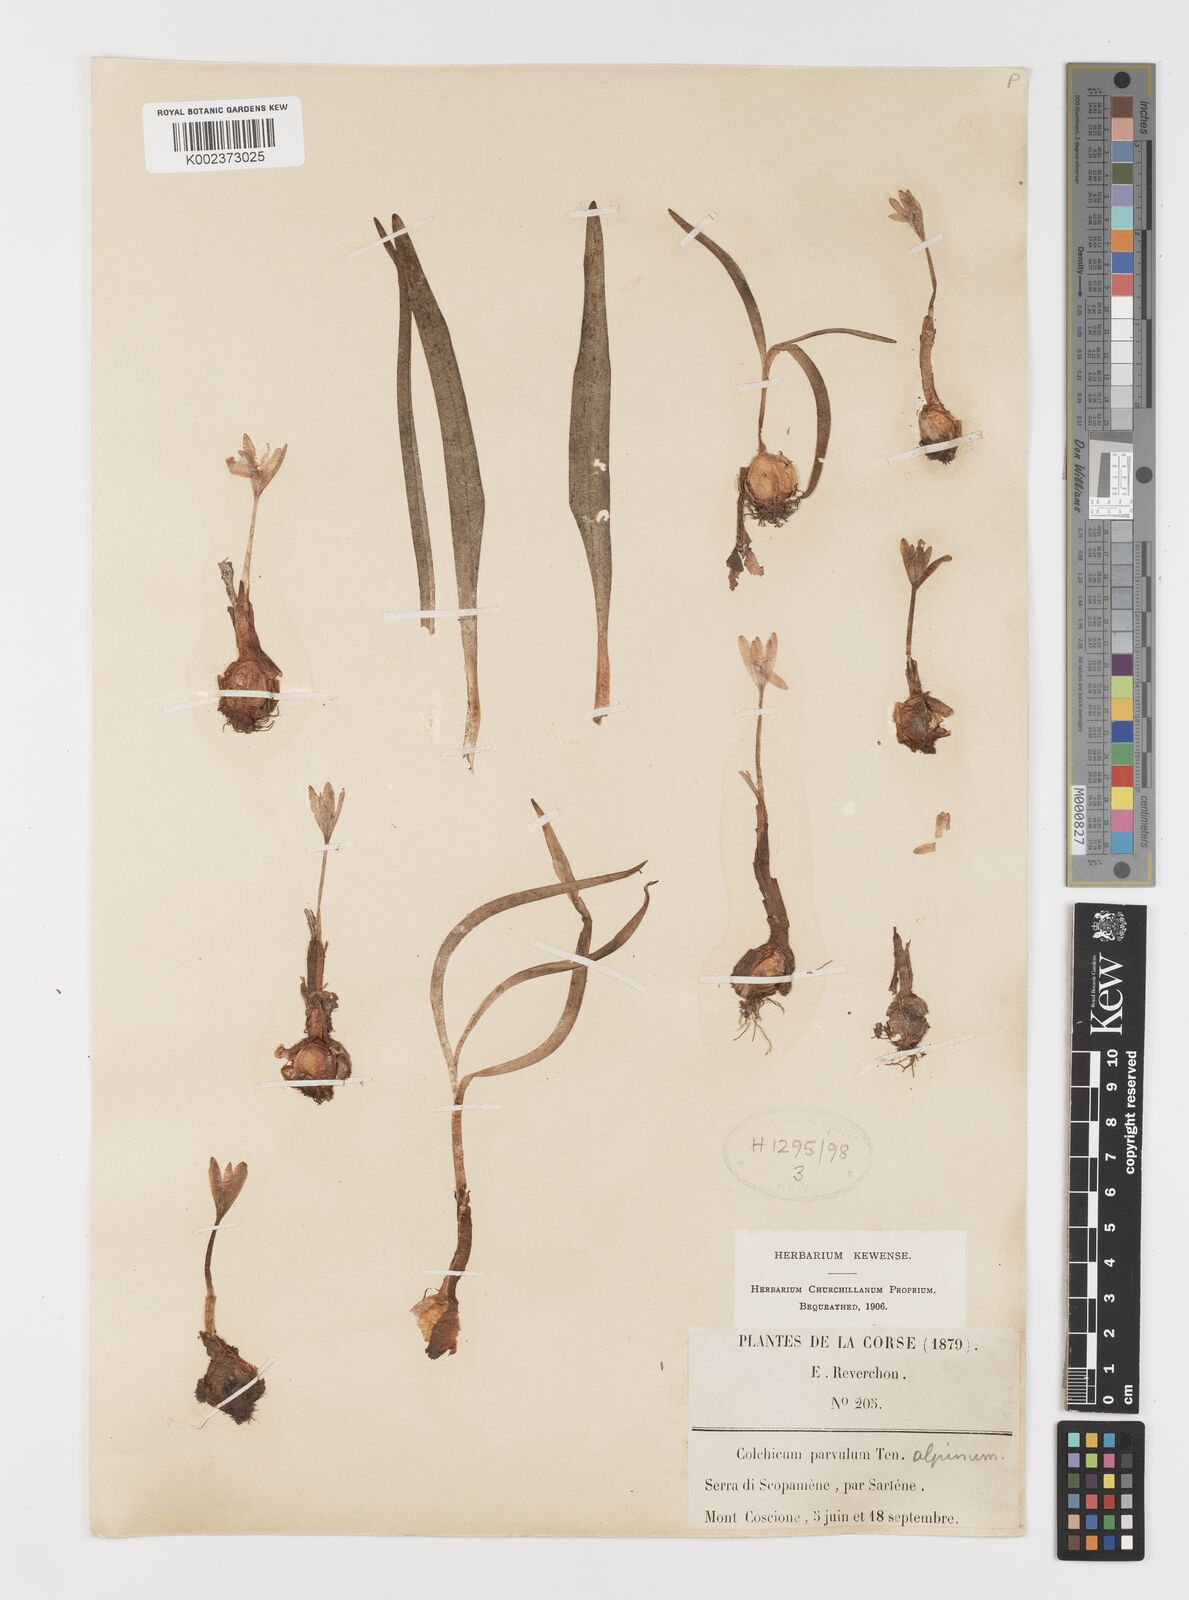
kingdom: Plantae
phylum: Tracheophyta
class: Liliopsida
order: Liliales
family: Colchicaceae
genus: Colchicum
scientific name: Colchicum alpinum
